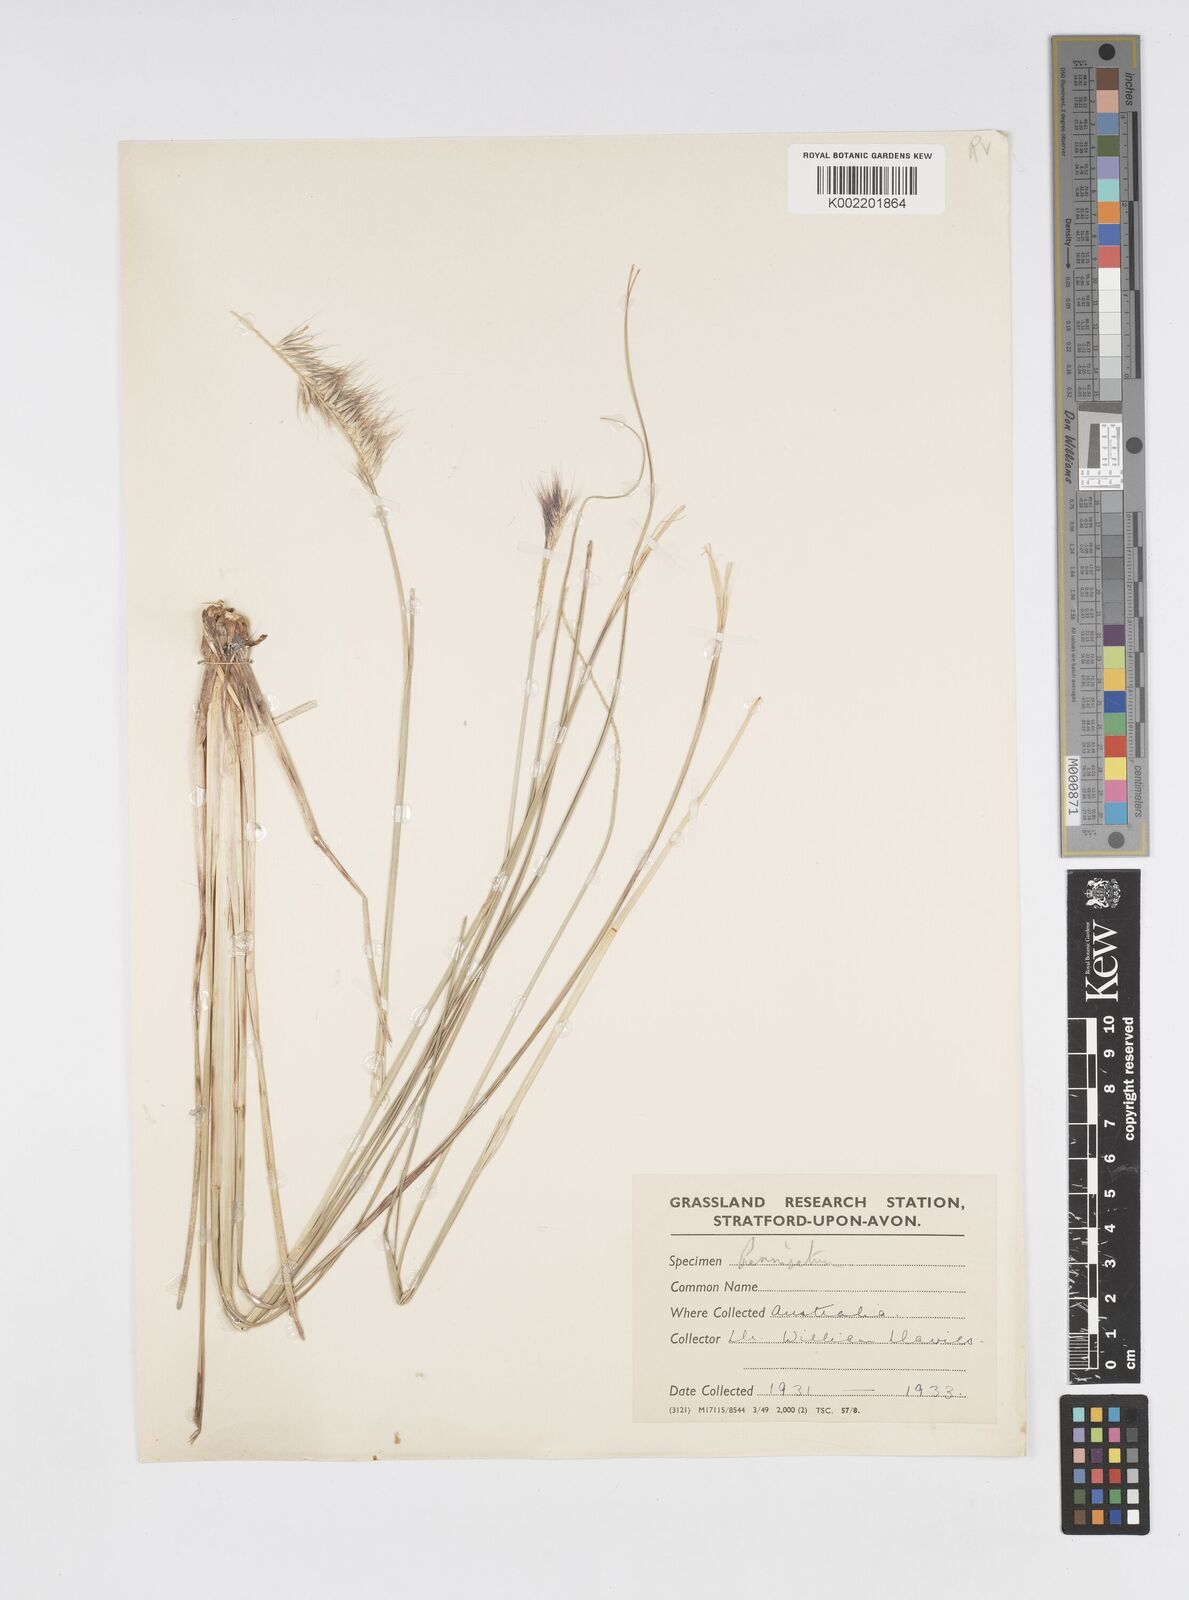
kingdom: Plantae
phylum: Tracheophyta
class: Liliopsida
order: Poales
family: Poaceae
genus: Cenchrus
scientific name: Cenchrus alopecuroides
